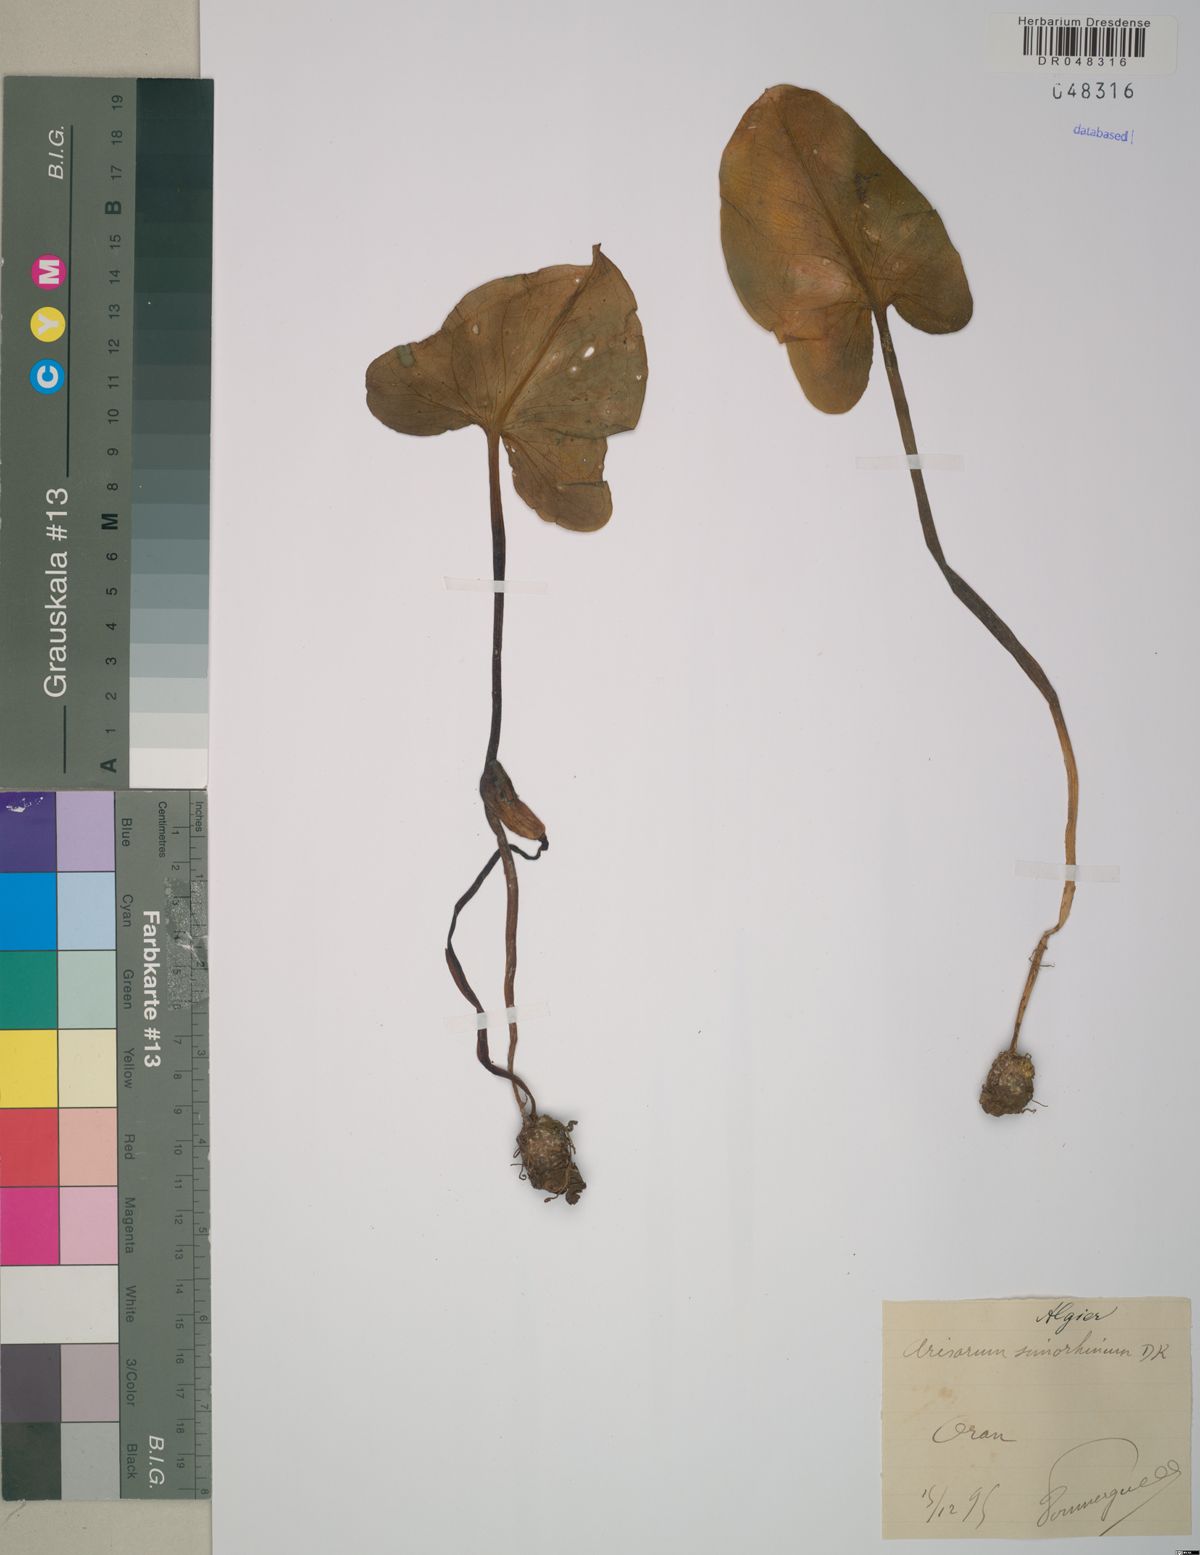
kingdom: Plantae
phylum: Tracheophyta
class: Liliopsida
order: Alismatales
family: Araceae
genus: Arisarum
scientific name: Arisarum simorrhinum
